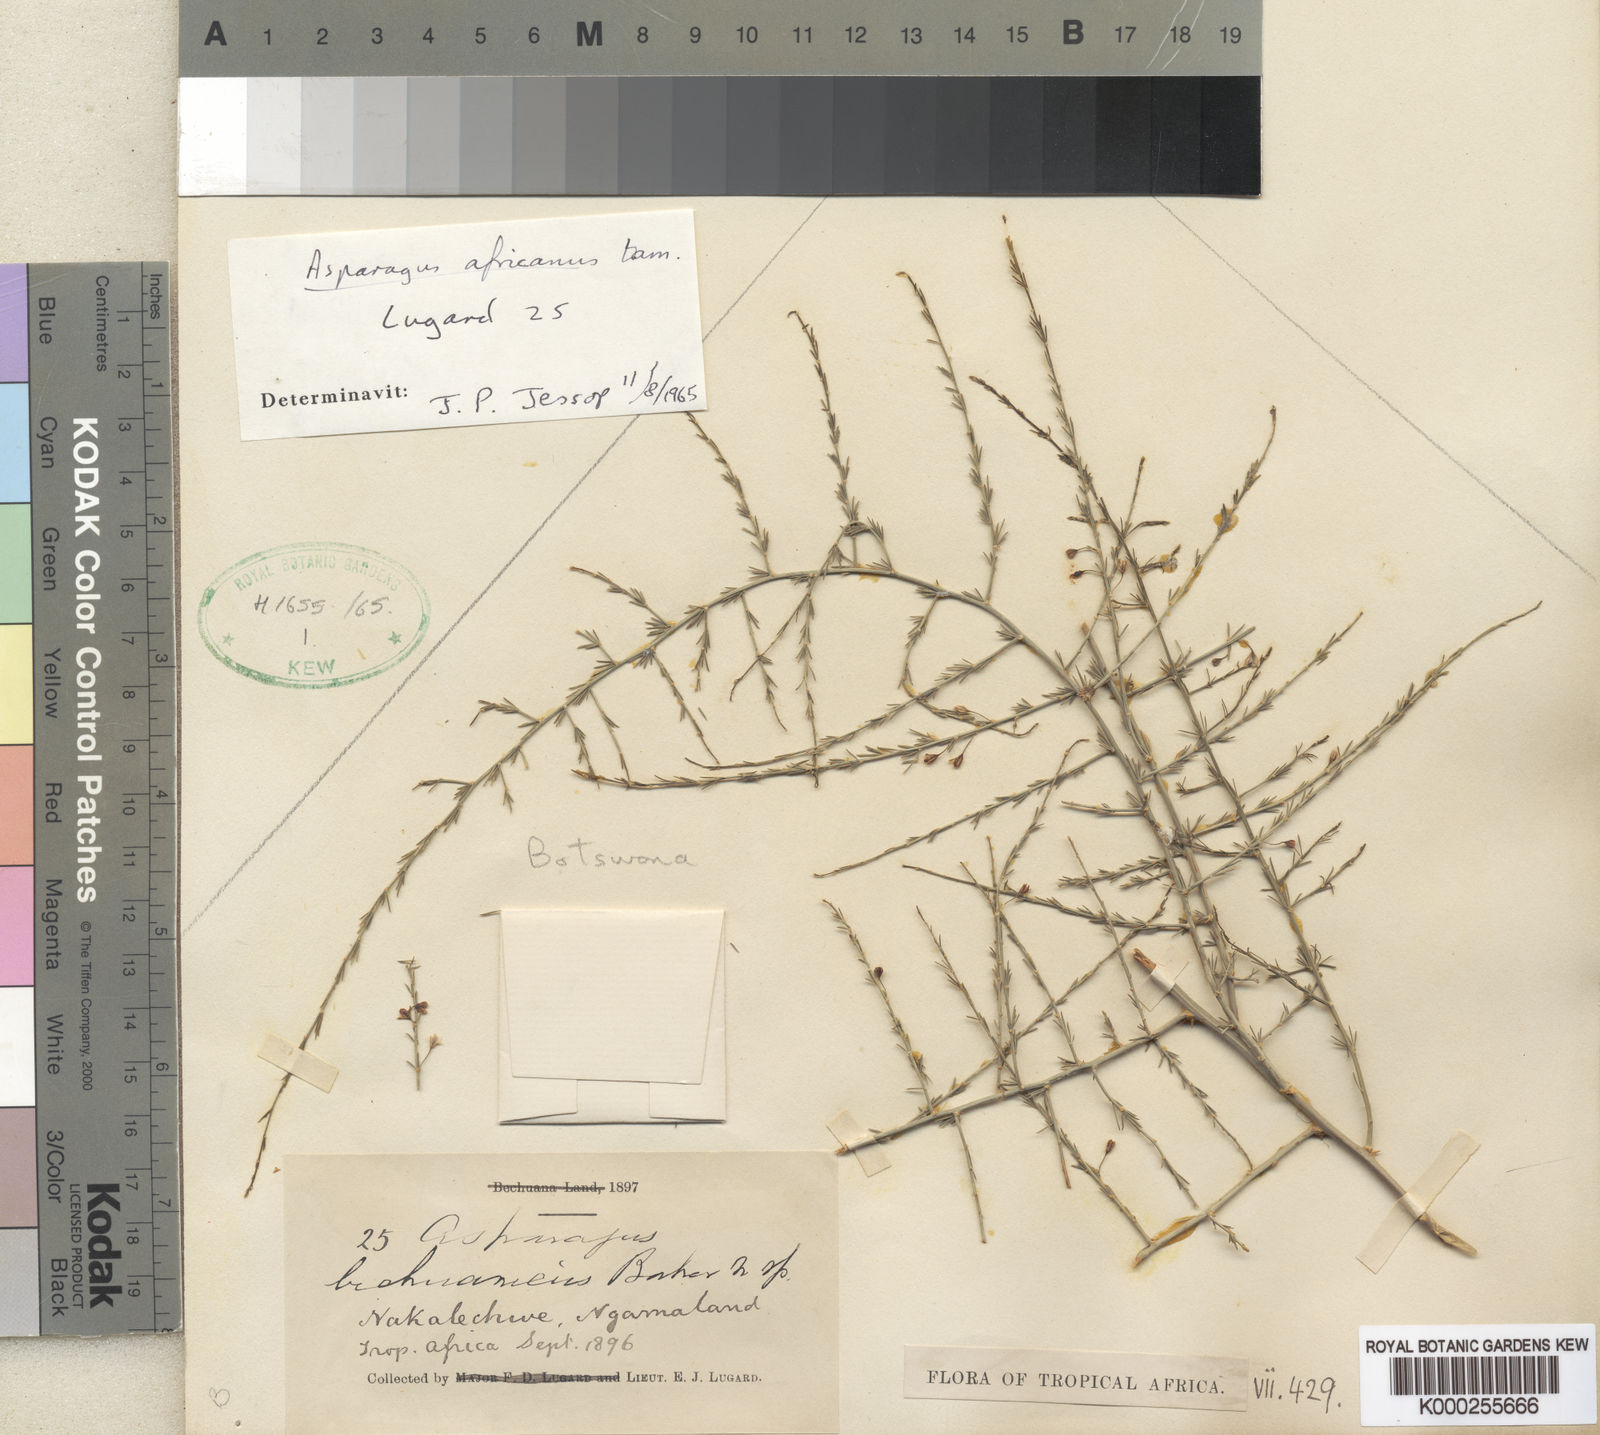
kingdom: Plantae
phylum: Tracheophyta
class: Liliopsida
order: Asparagales
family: Asparagaceae
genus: Asparagus
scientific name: Asparagus africanus
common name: Asparagus-fern
